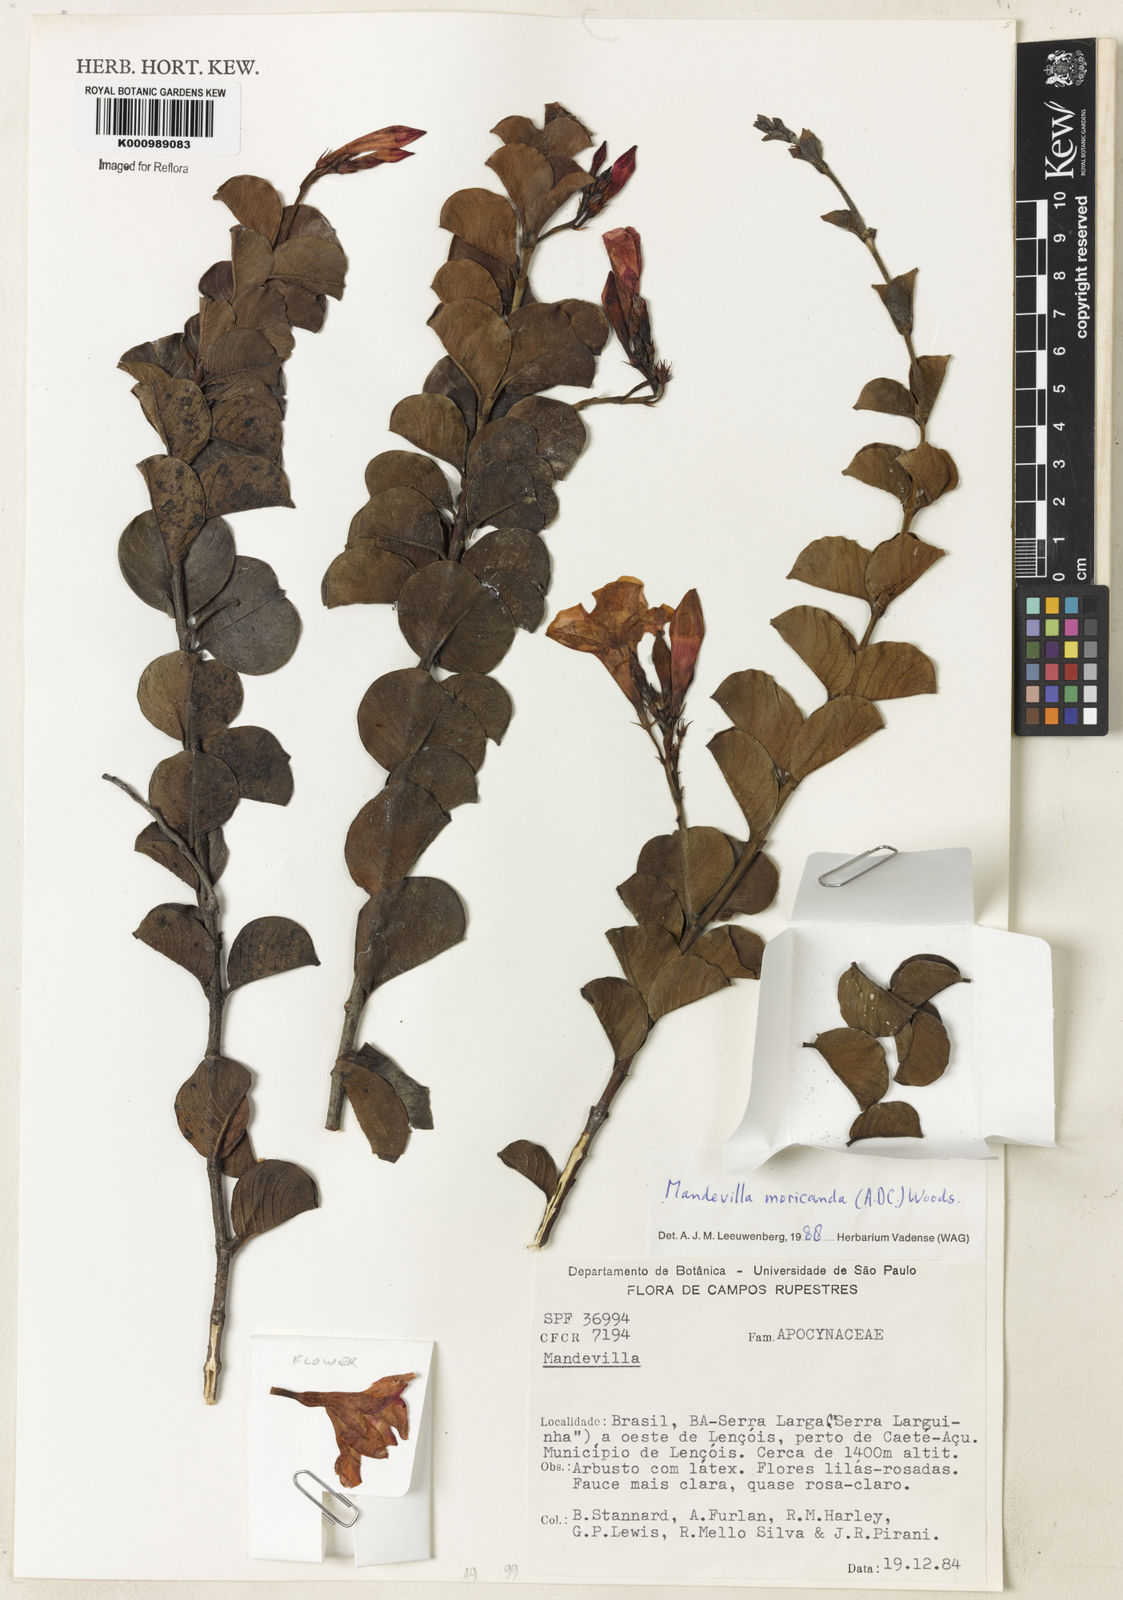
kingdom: Plantae
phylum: Tracheophyta
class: Magnoliopsida
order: Gentianales
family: Apocynaceae
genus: Mandevilla
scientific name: Mandevilla bahiensis
